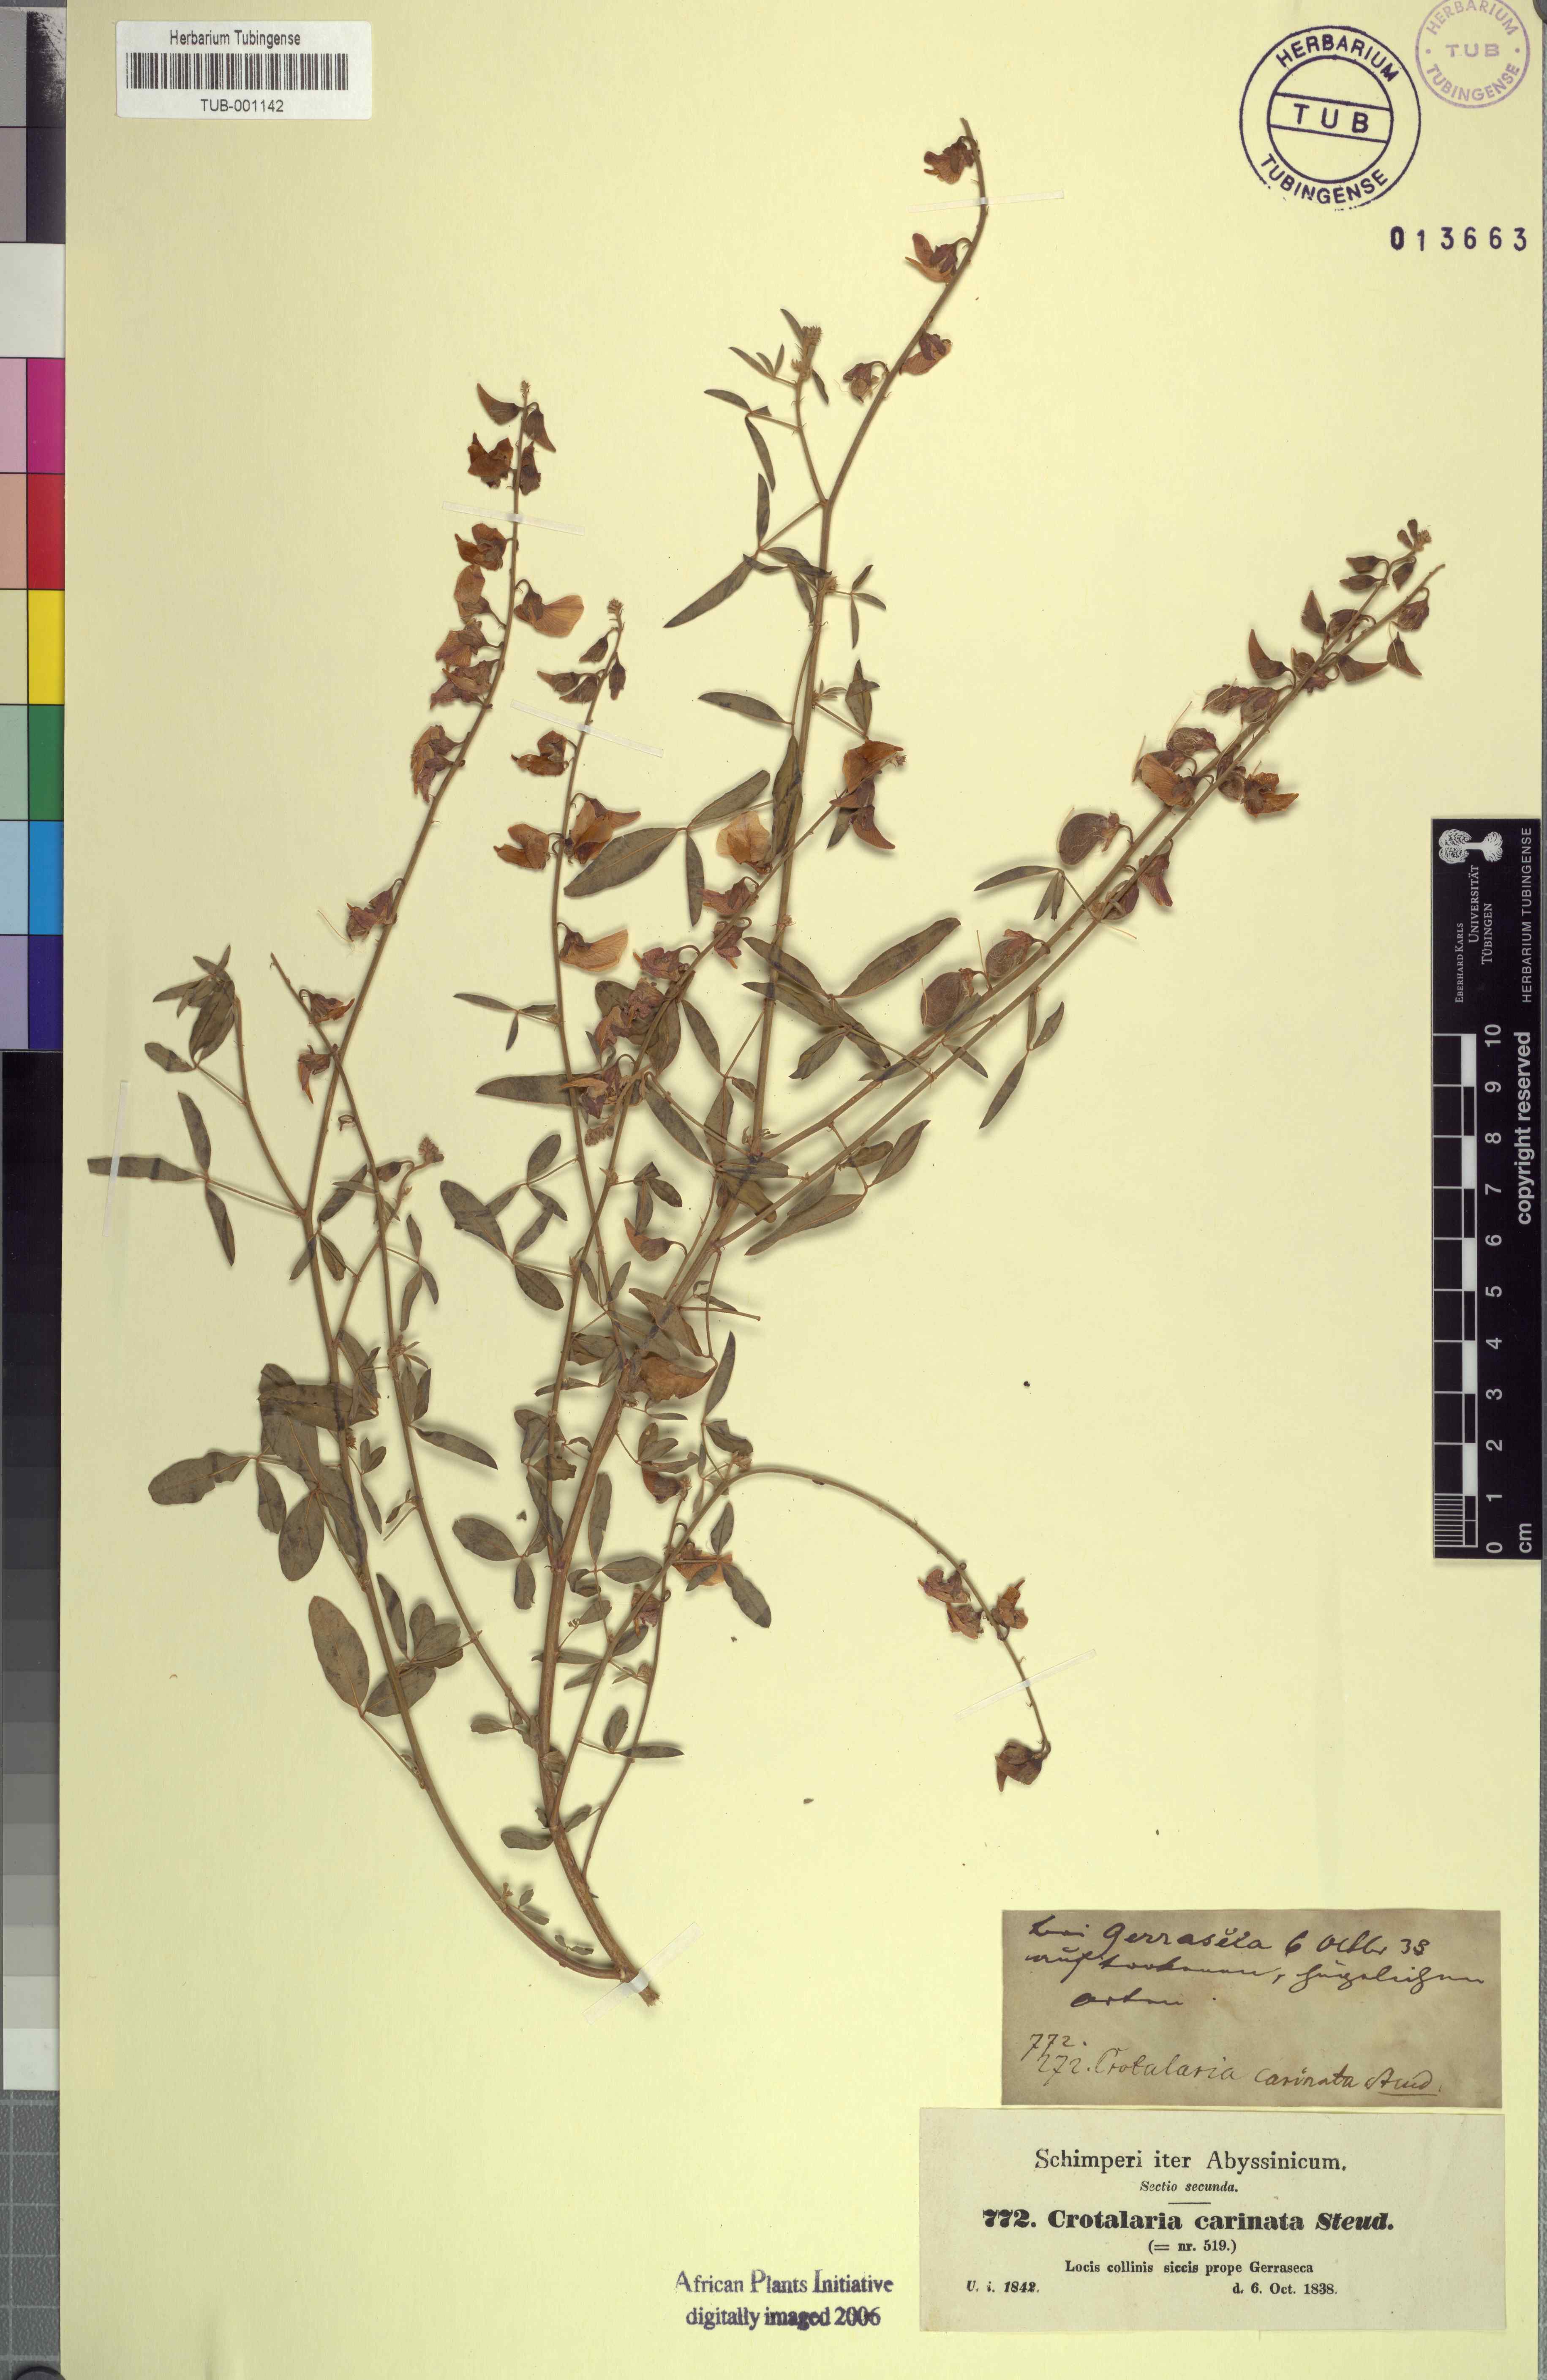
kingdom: Plantae
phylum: Tracheophyta
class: Magnoliopsida
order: Fabales
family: Fabaceae
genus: Crotalaria
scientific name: Crotalaria senegalensis
